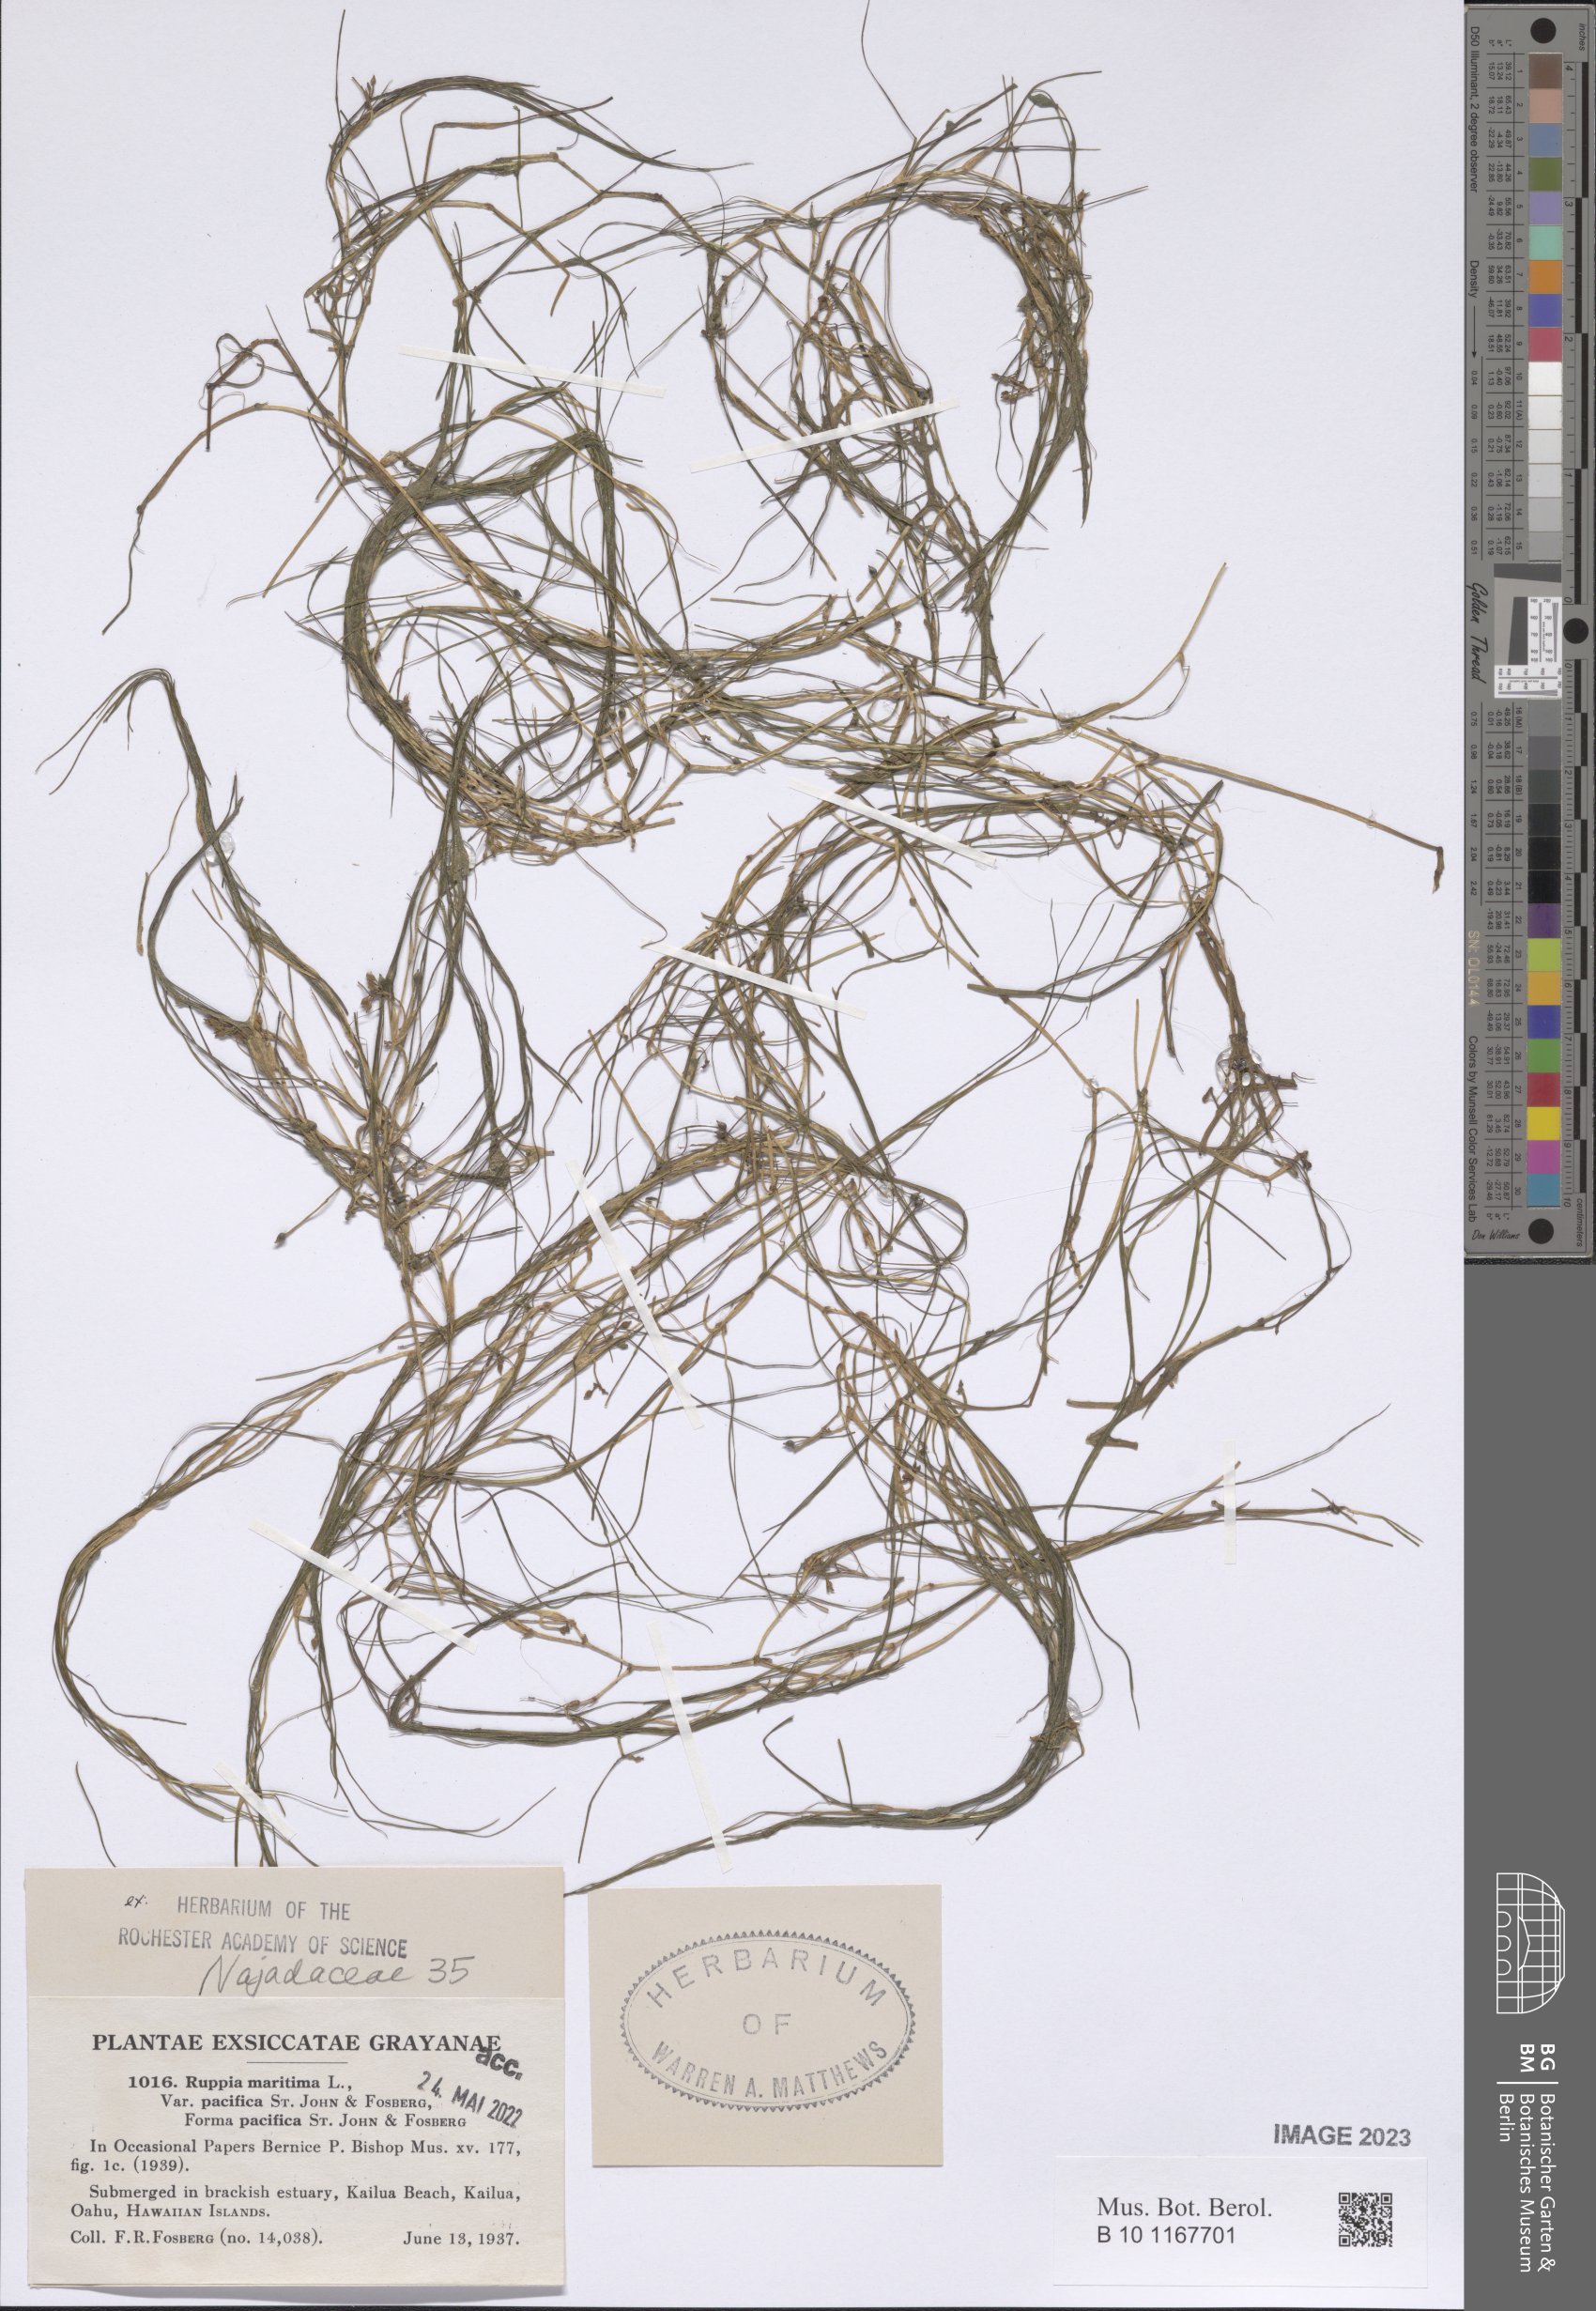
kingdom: Plantae
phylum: Tracheophyta
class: Liliopsida
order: Alismatales
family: Ruppiaceae
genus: Ruppia
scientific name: Ruppia maritima
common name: Beaked tasselweed
